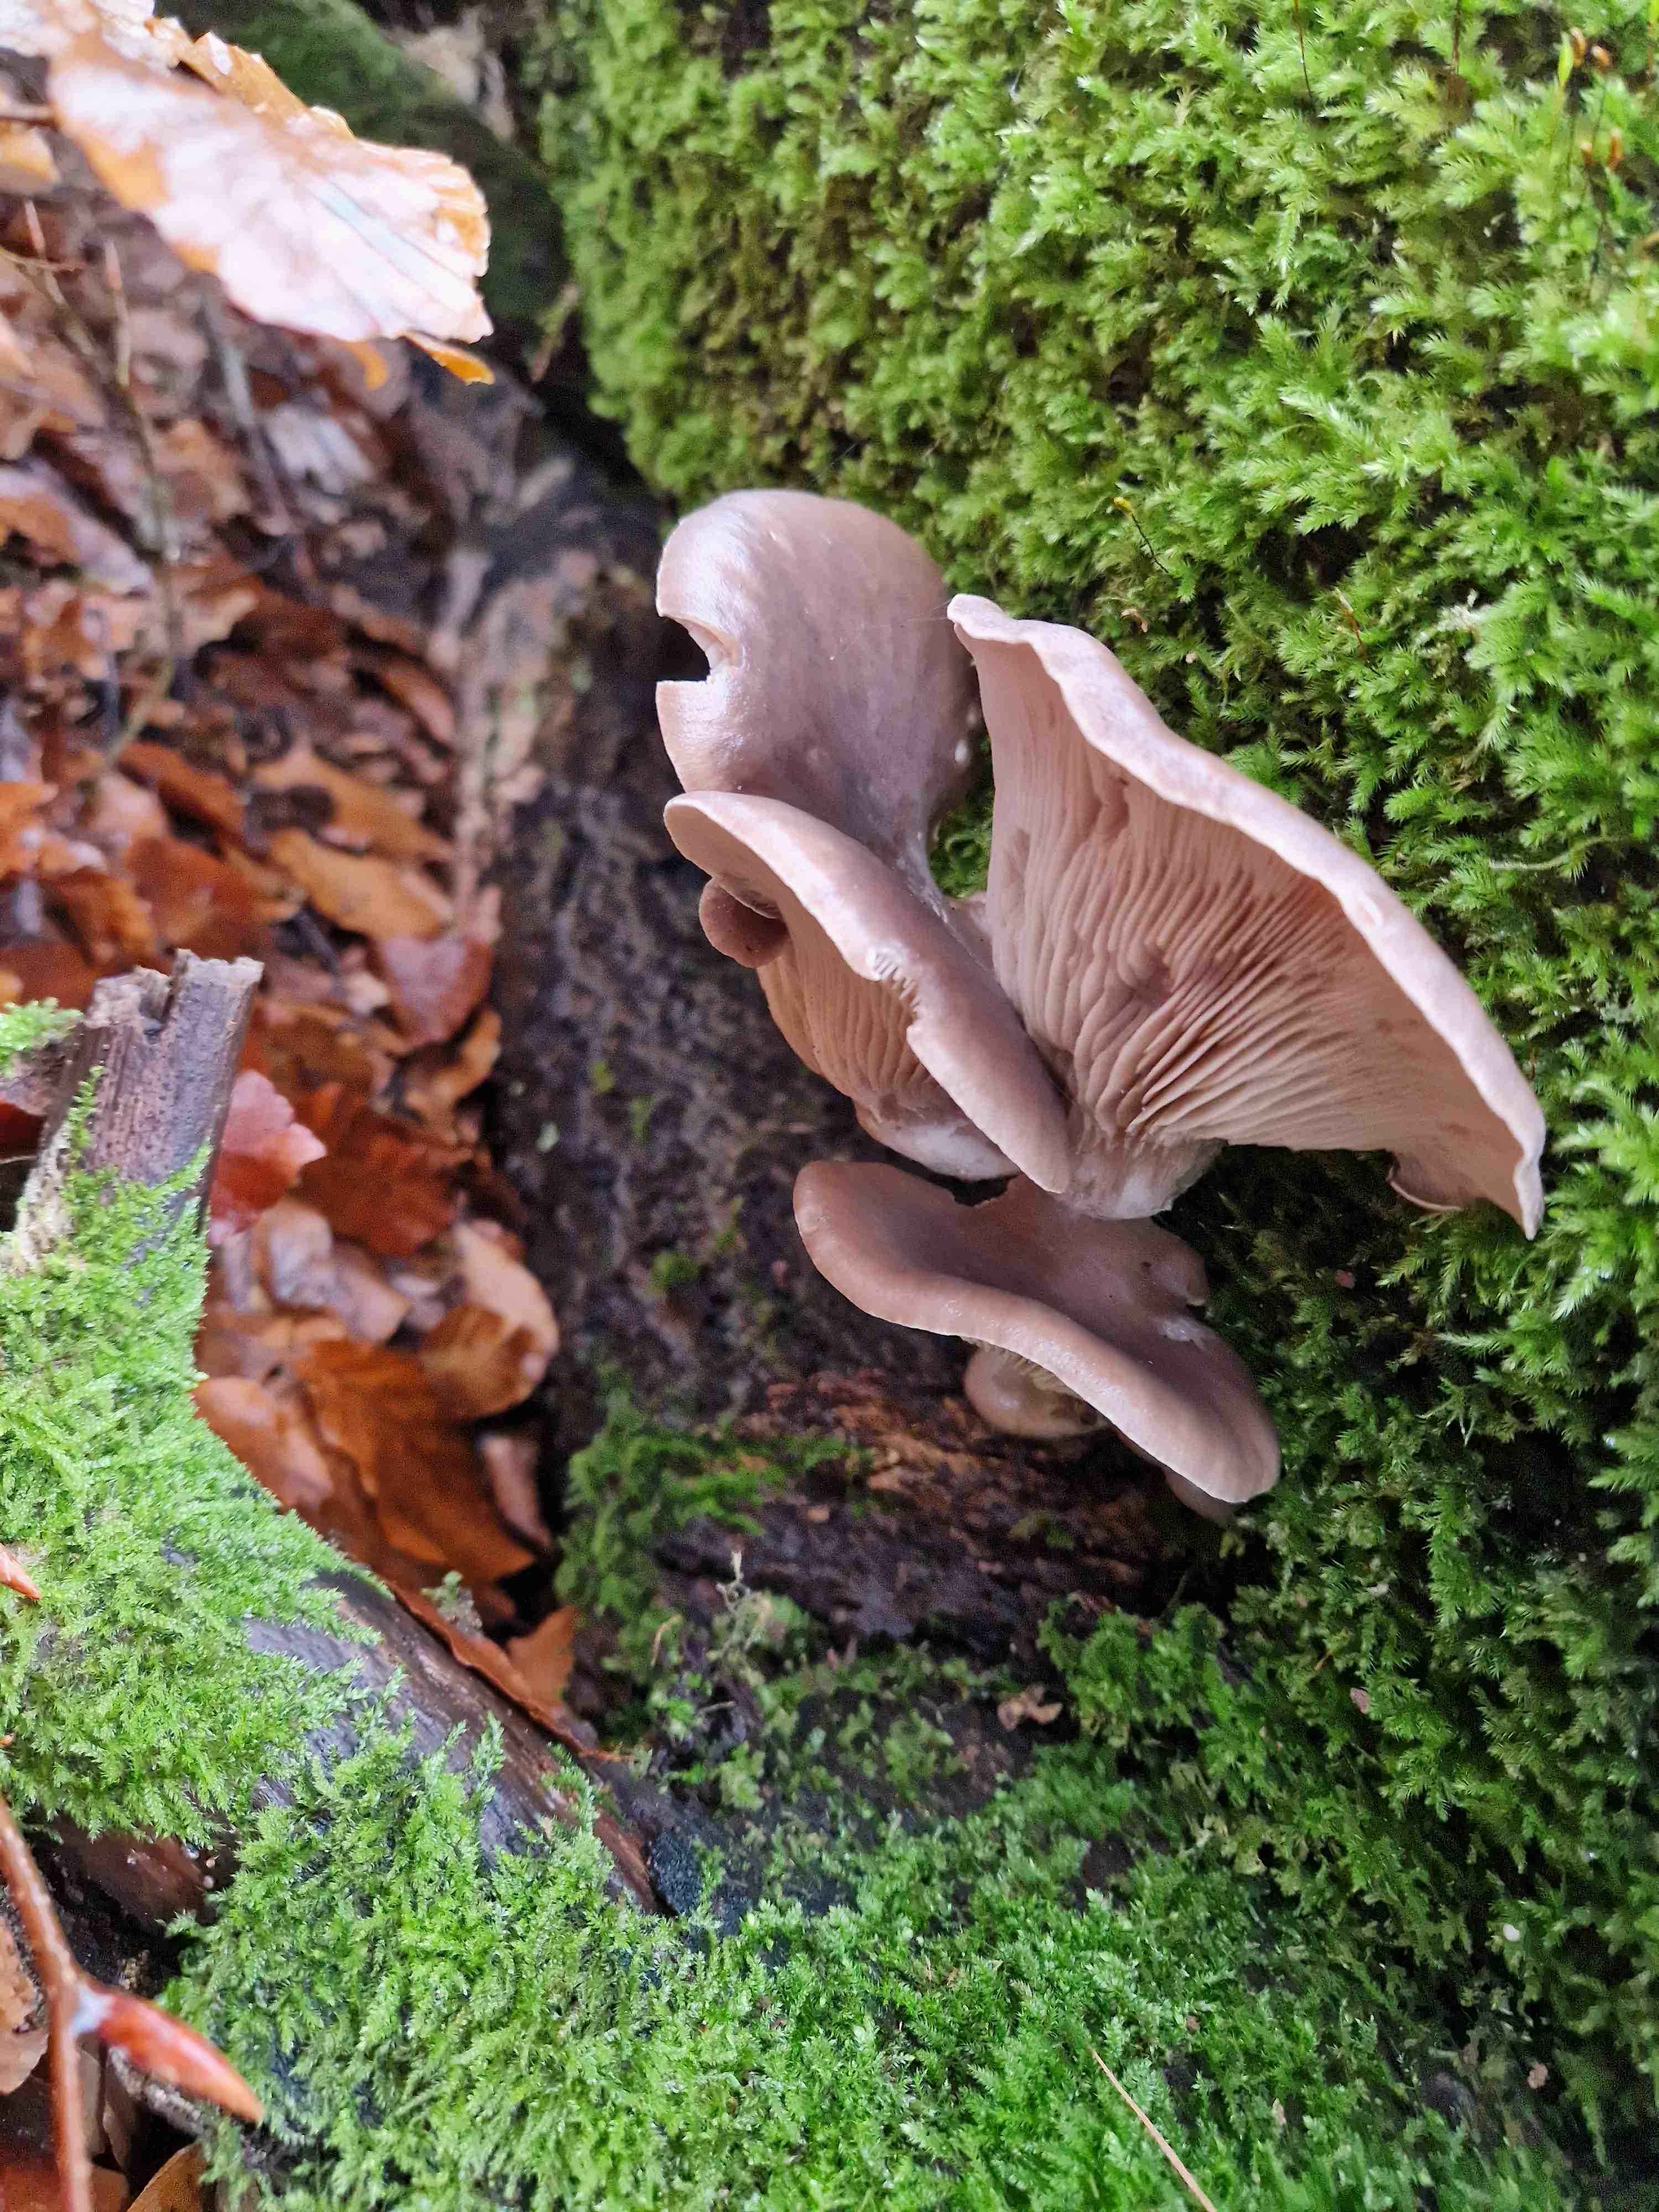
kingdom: Fungi
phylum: Basidiomycota
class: Agaricomycetes
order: Agaricales
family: Pleurotaceae
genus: Pleurotus
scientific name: Pleurotus ostreatus
